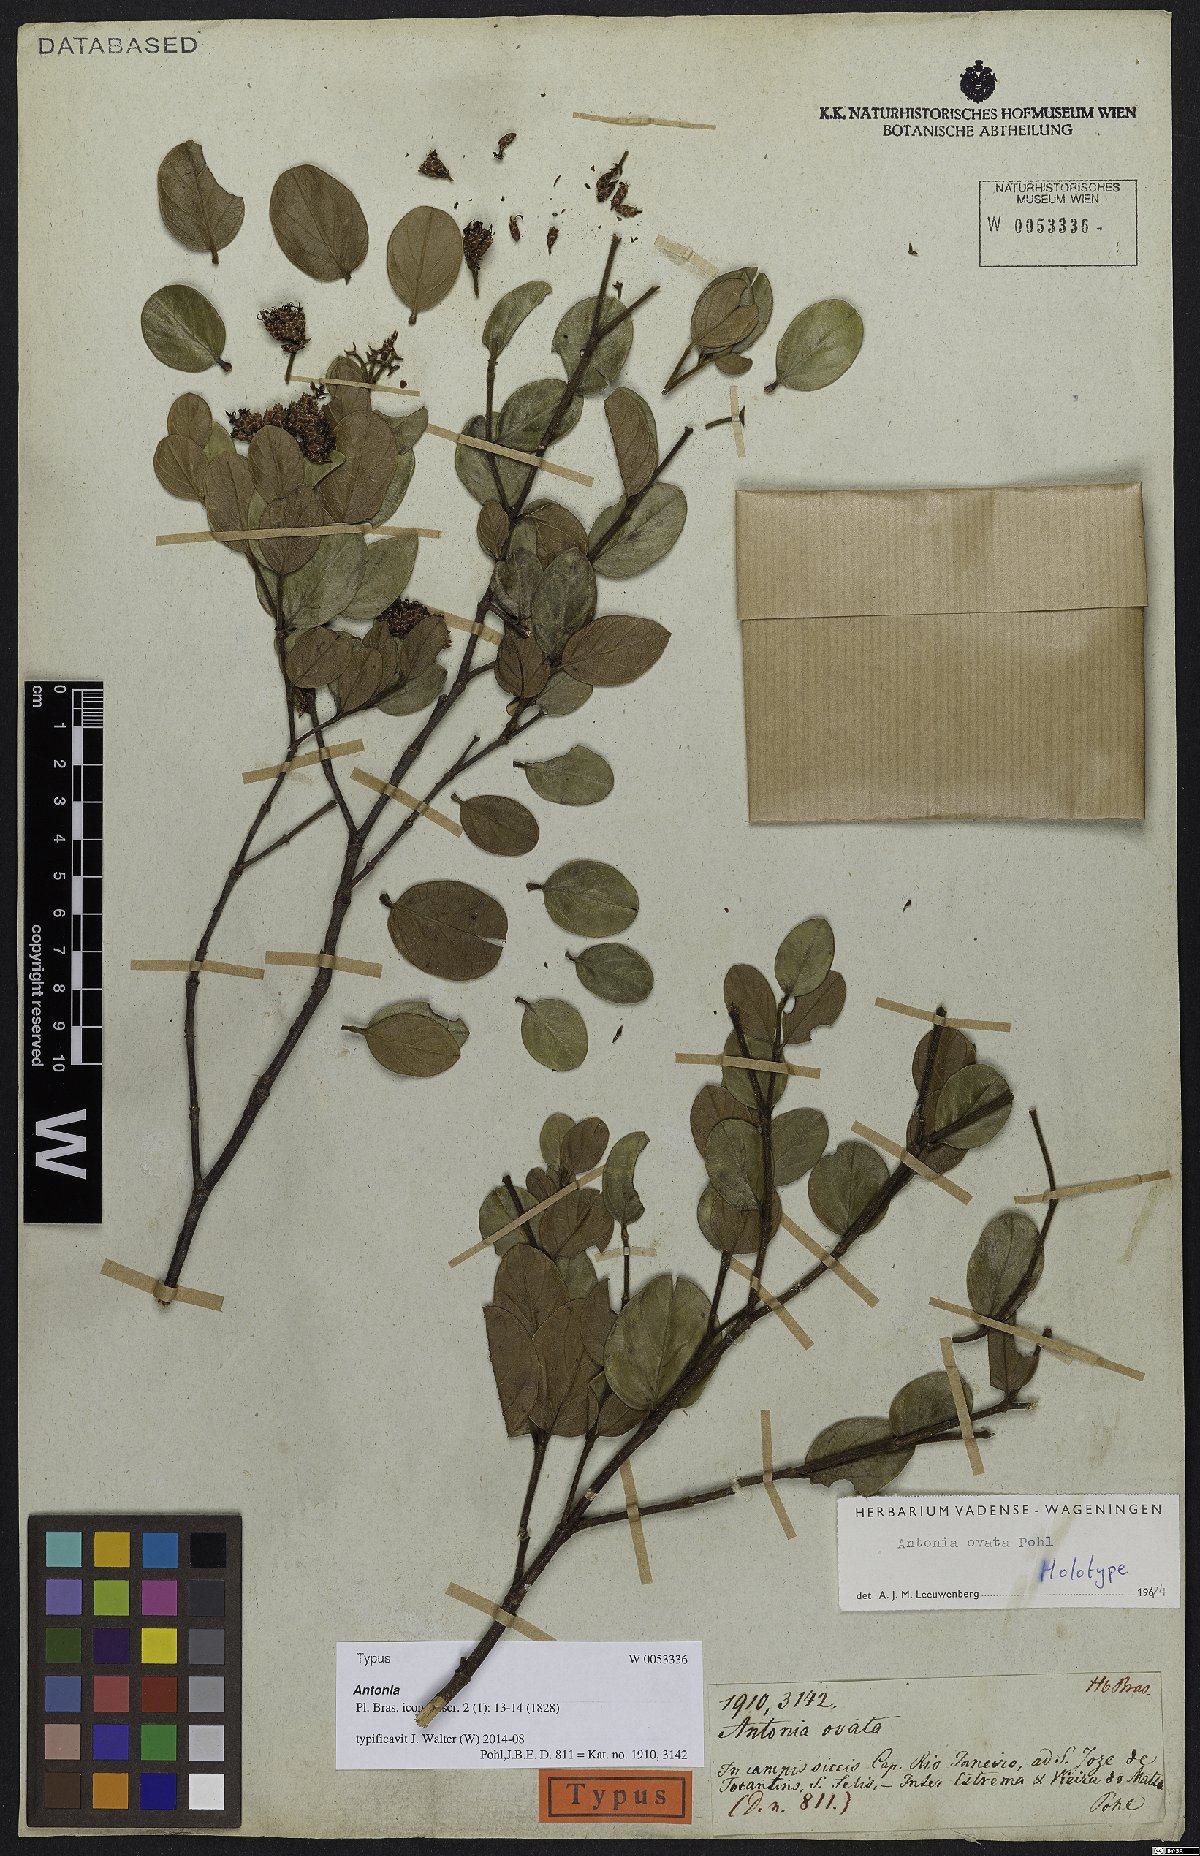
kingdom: Plantae
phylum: Tracheophyta
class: Magnoliopsida
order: Gentianales
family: Loganiaceae
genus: Antonia
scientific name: Antonia ovata
